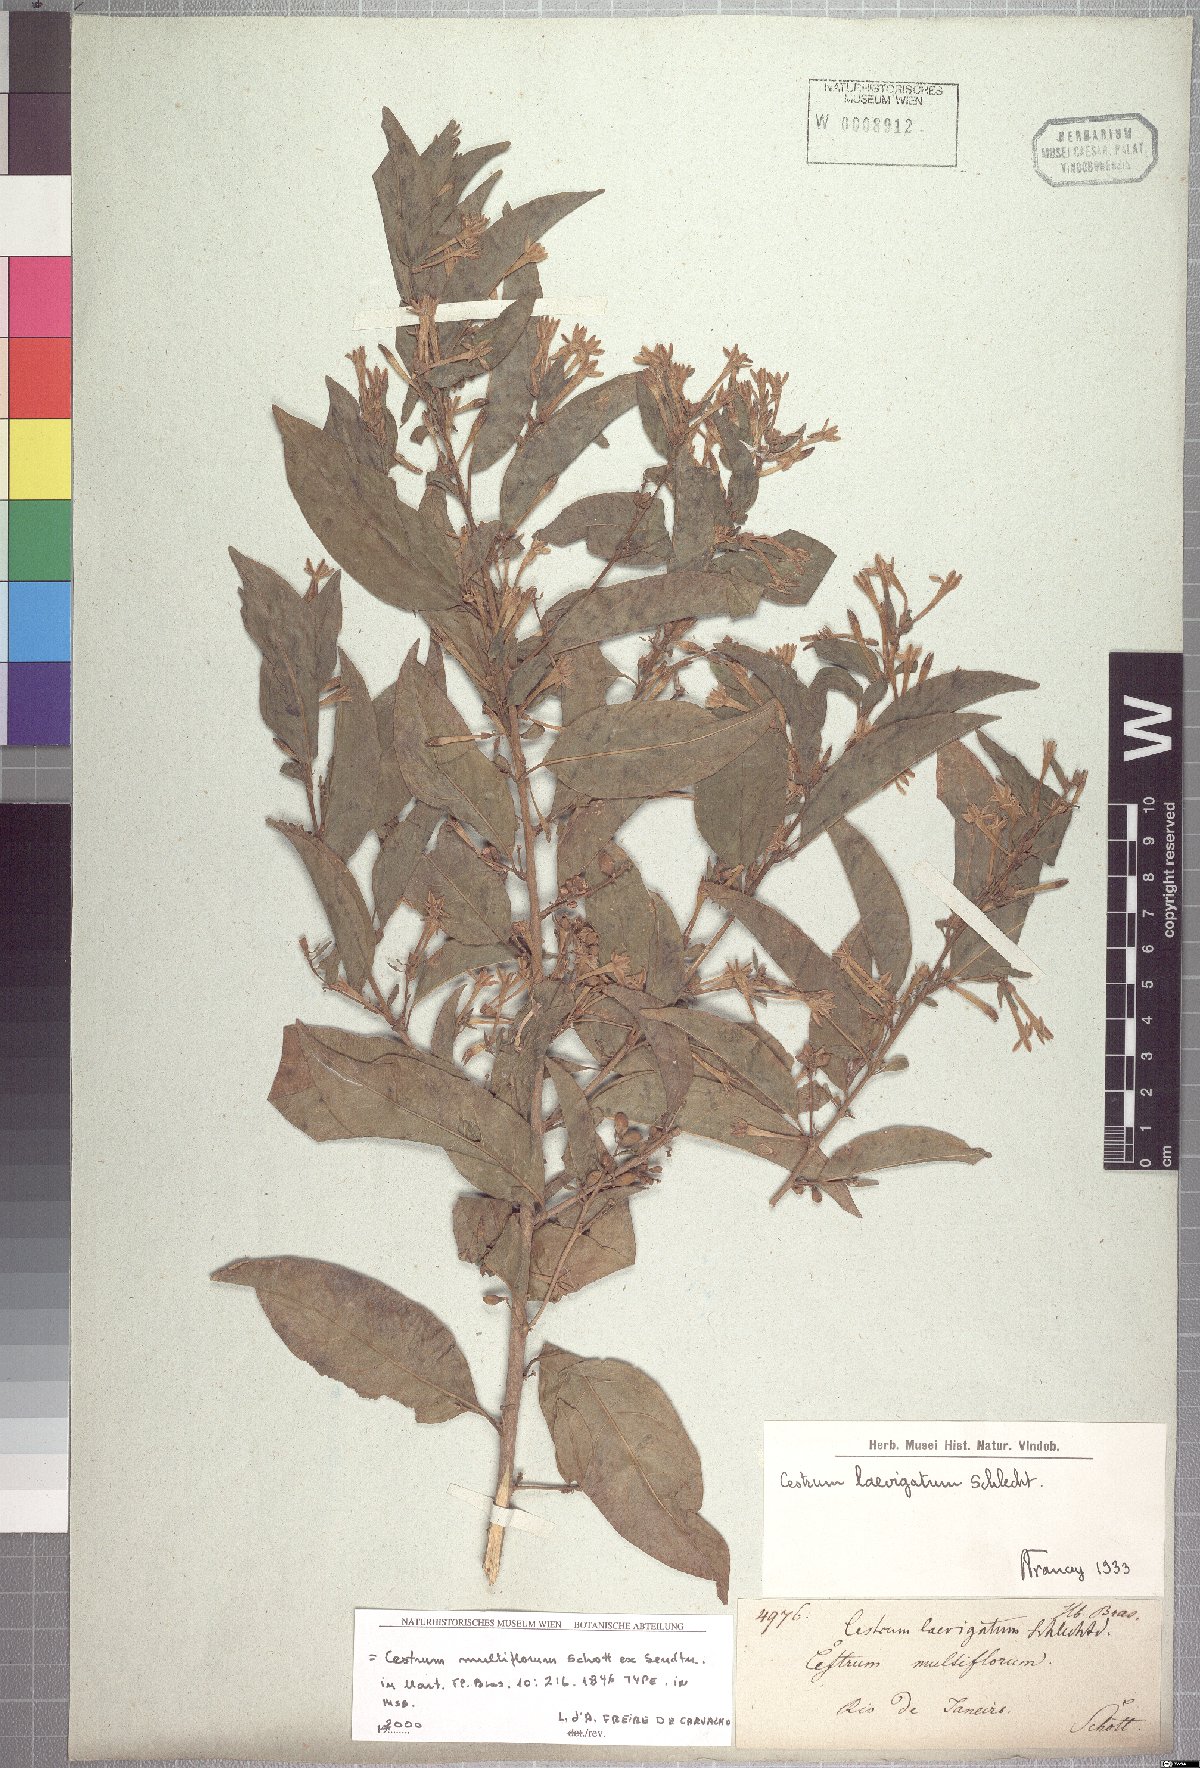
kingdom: Plantae
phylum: Tracheophyta
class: Magnoliopsida
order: Solanales
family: Solanaceae
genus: Cestrum
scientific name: Cestrum laevigatum
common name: Inkberry
